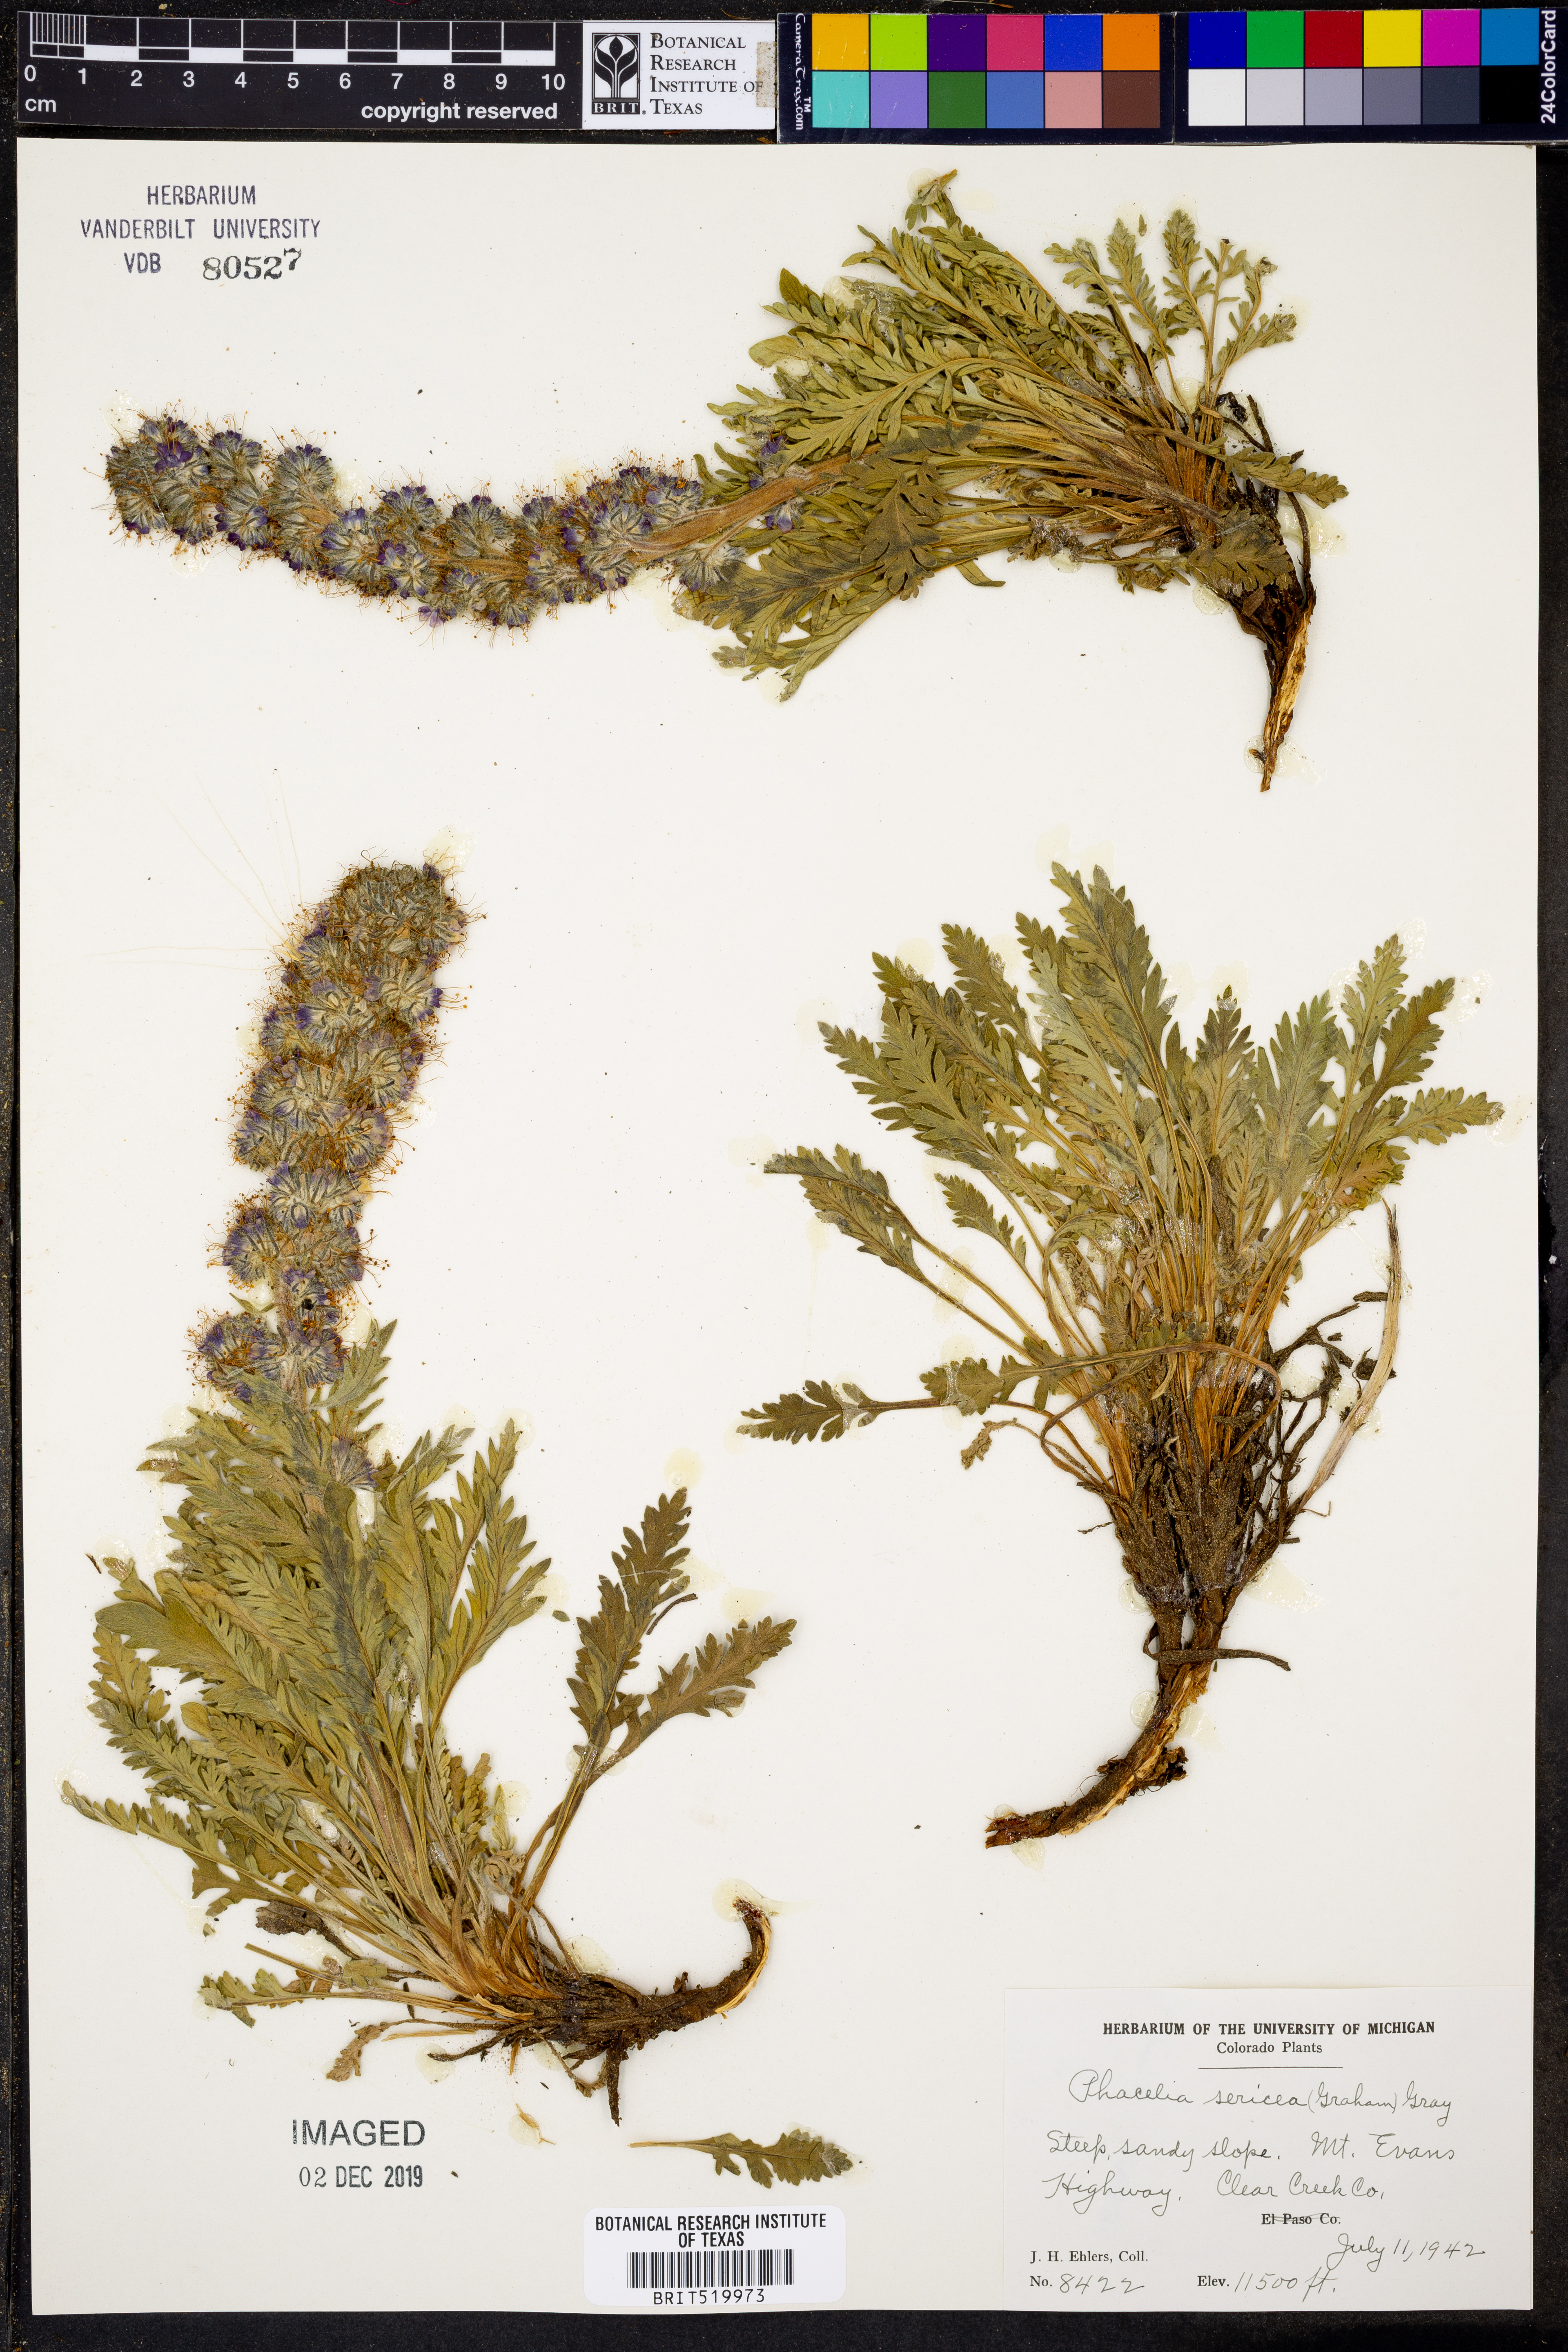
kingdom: Plantae
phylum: Tracheophyta
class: Magnoliopsida
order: Boraginales
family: Hydrophyllaceae
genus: Phacelia
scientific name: Phacelia sericea
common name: Silky phacelia
